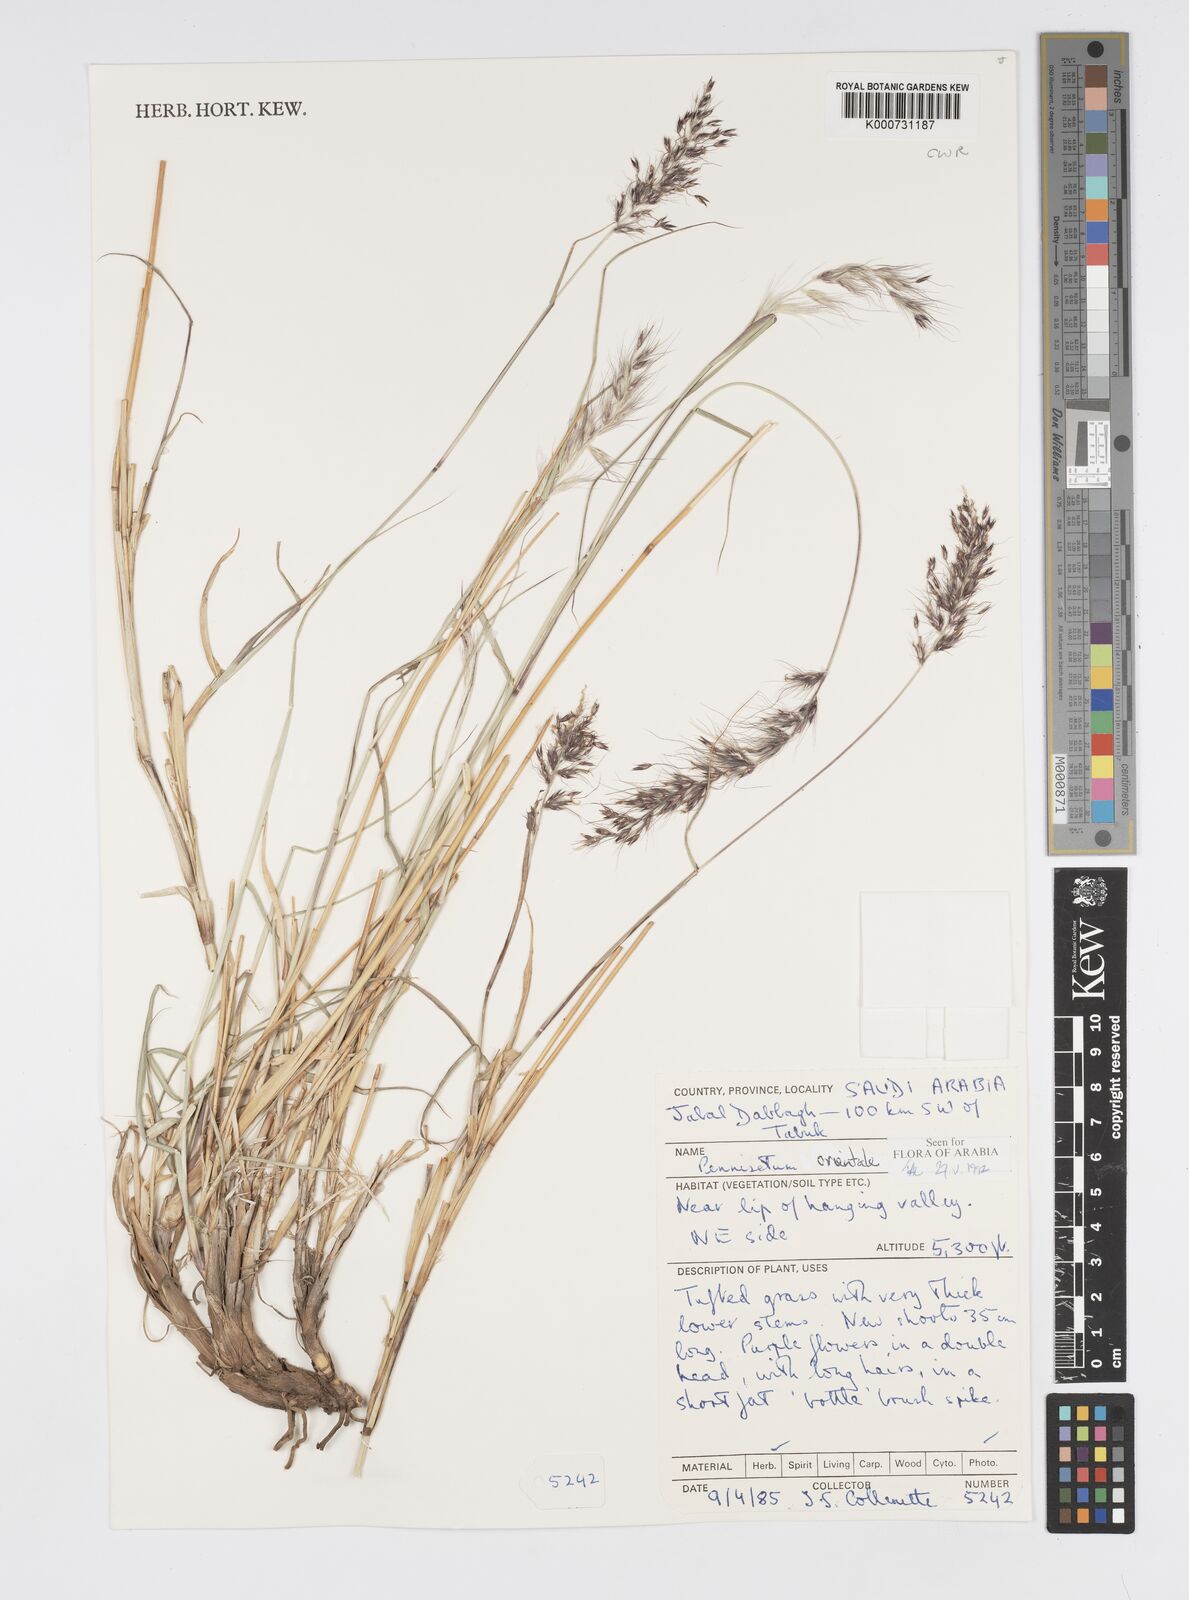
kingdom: Plantae
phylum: Tracheophyta
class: Liliopsida
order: Poales
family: Poaceae
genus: Cenchrus
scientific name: Cenchrus orientalis
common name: Oriental fountain grass
